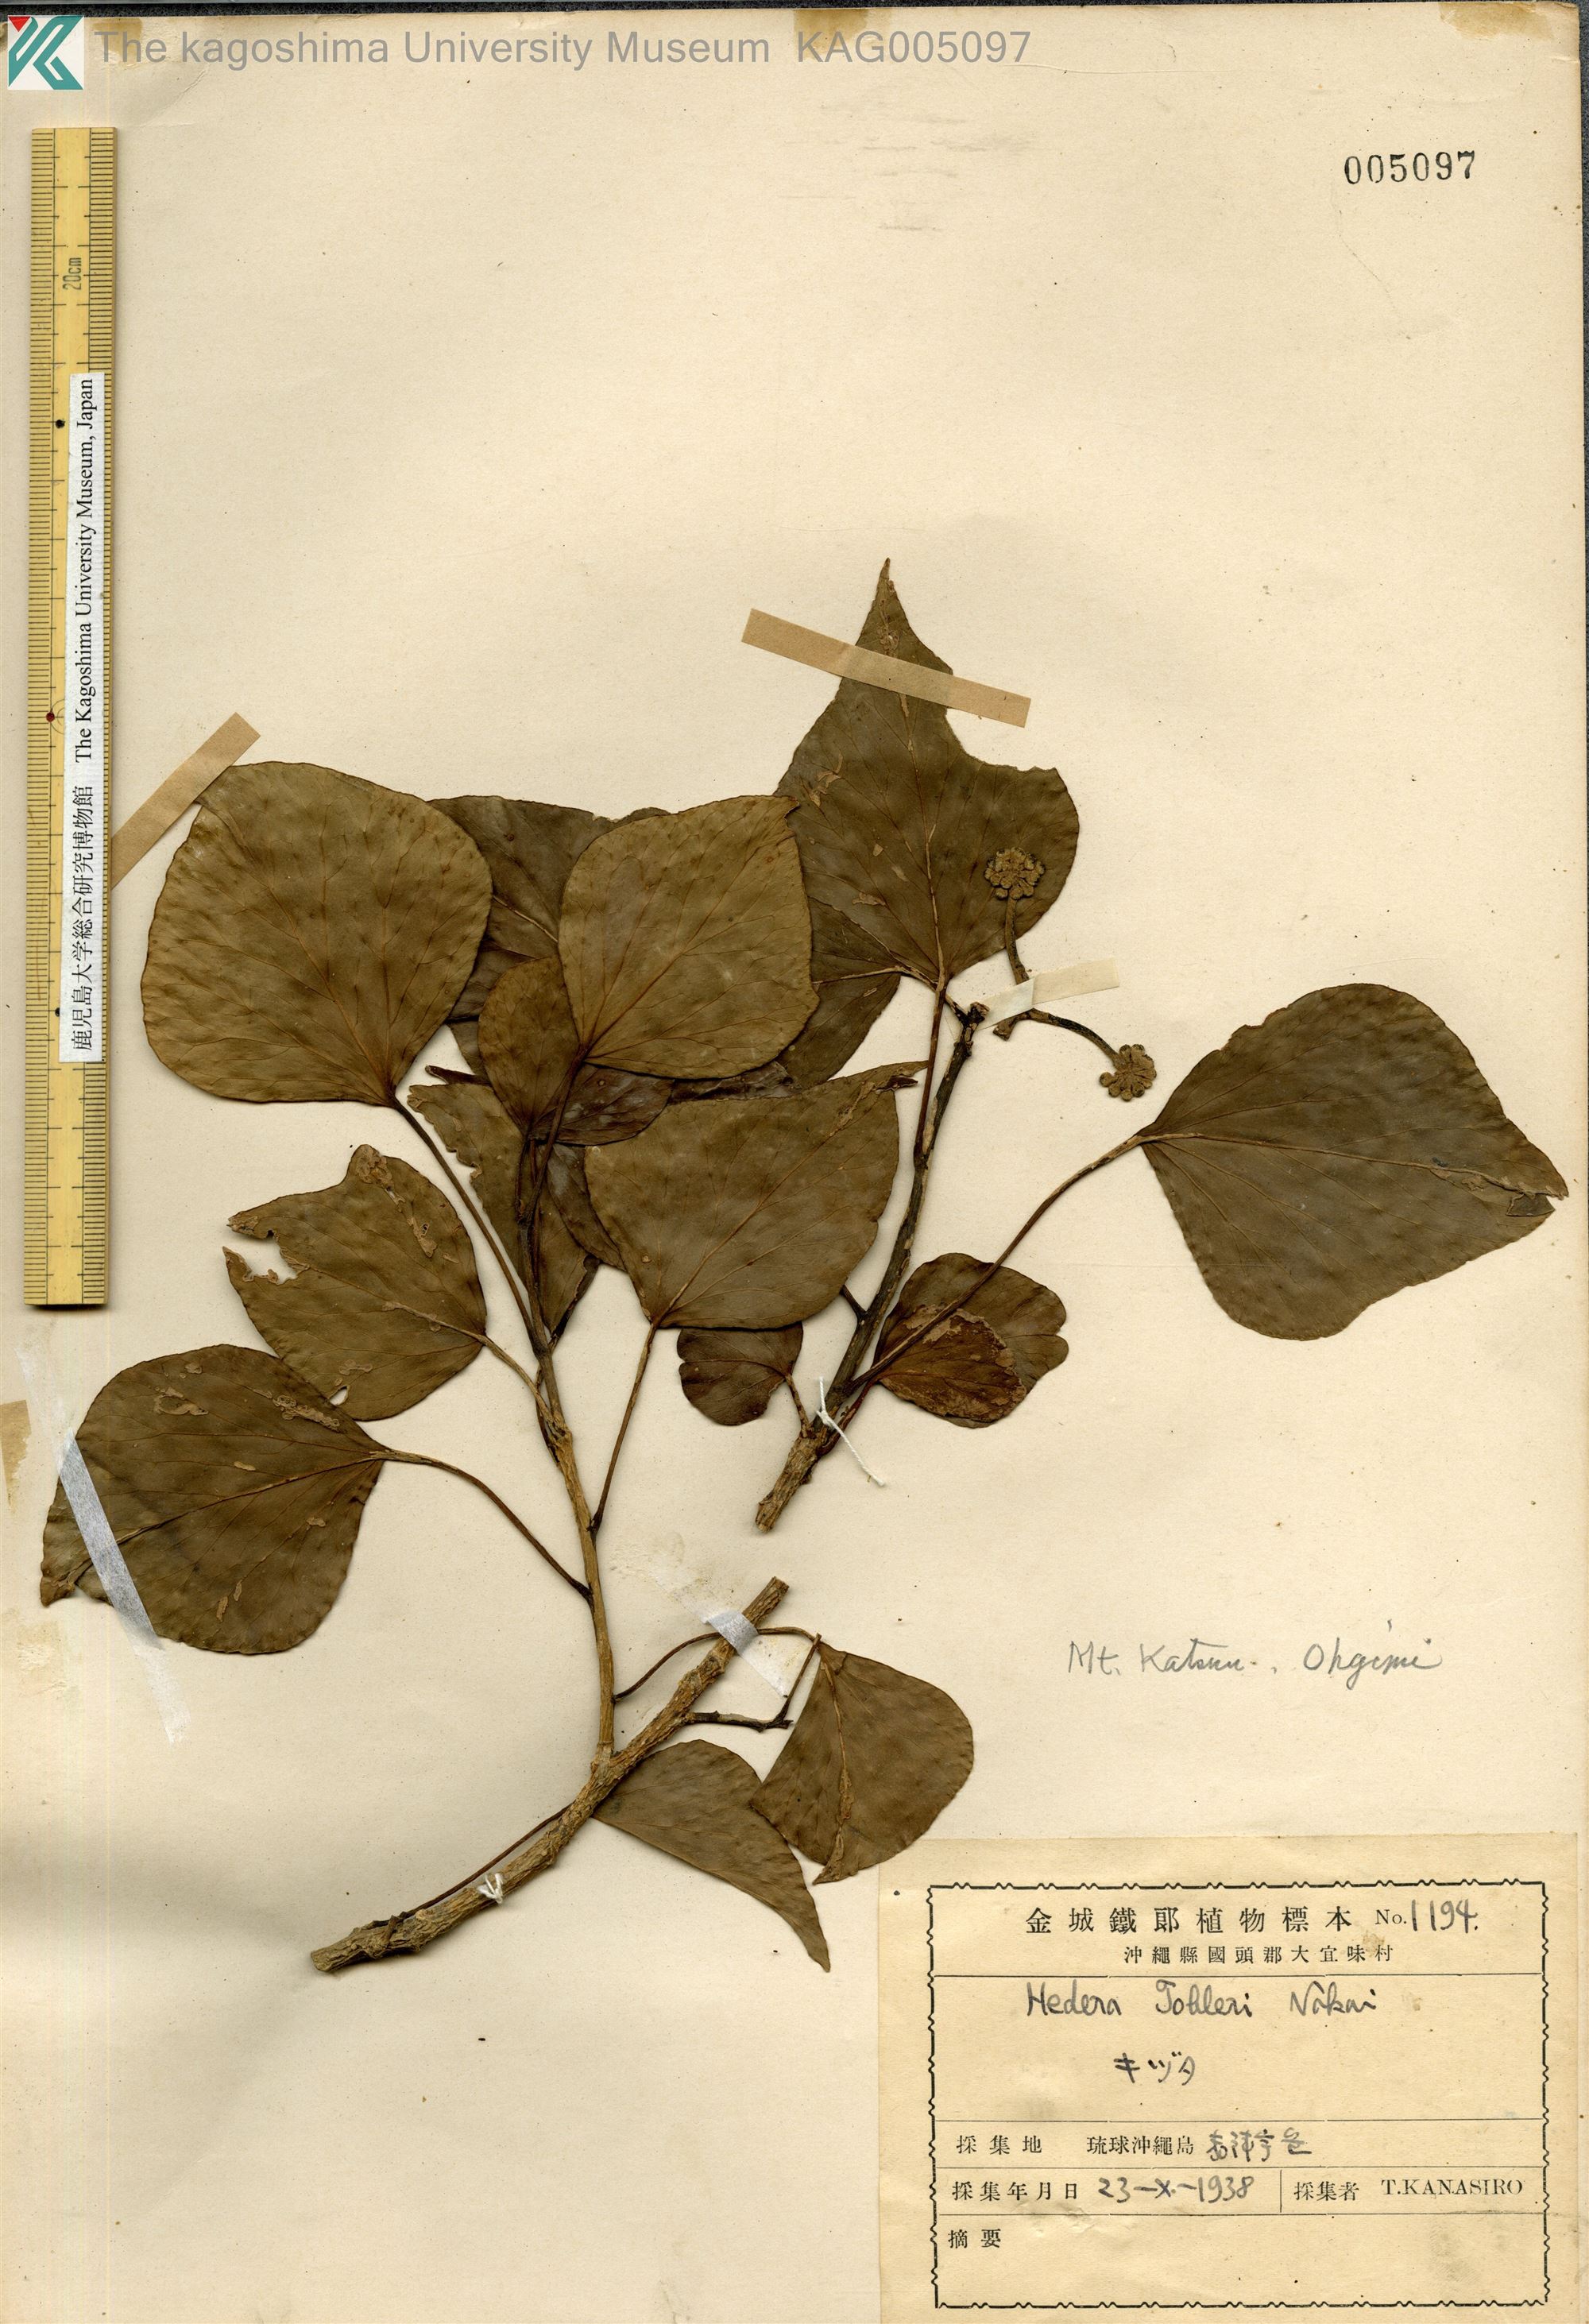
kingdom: Plantae
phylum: Tracheophyta
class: Magnoliopsida
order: Apiales
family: Araliaceae
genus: Hedera
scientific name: Hedera rhombea
